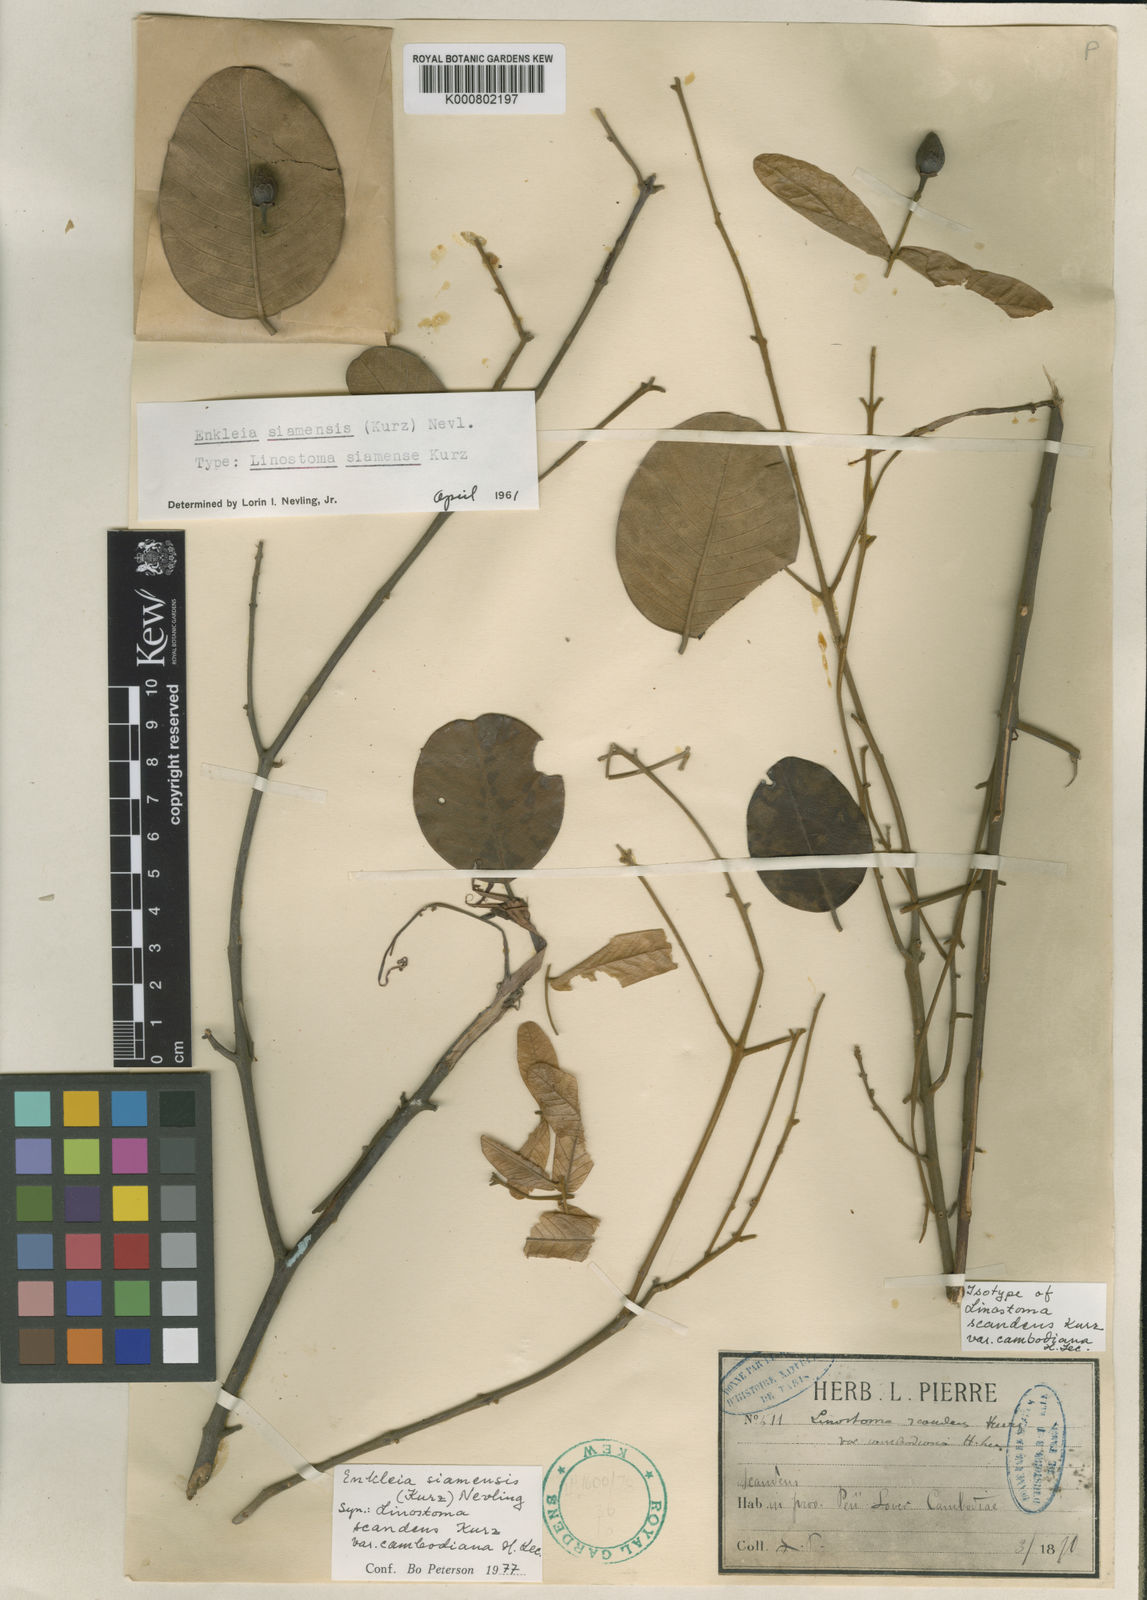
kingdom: Plantae
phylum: Tracheophyta
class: Magnoliopsida
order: Malvales
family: Thymelaeaceae
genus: Enkleia
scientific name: Enkleia malaccensis
